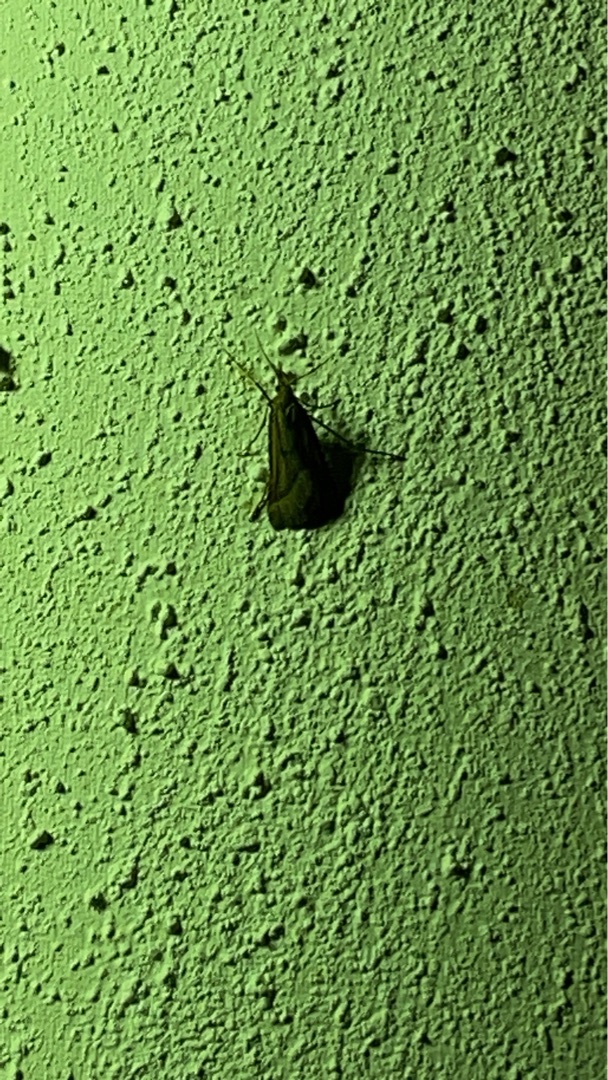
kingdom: Animalia
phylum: Arthropoda
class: Insecta
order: Lepidoptera
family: Pyralidae
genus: Synaphe
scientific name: Synaphe punctalis
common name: Spidsvinget moshalvmøl
